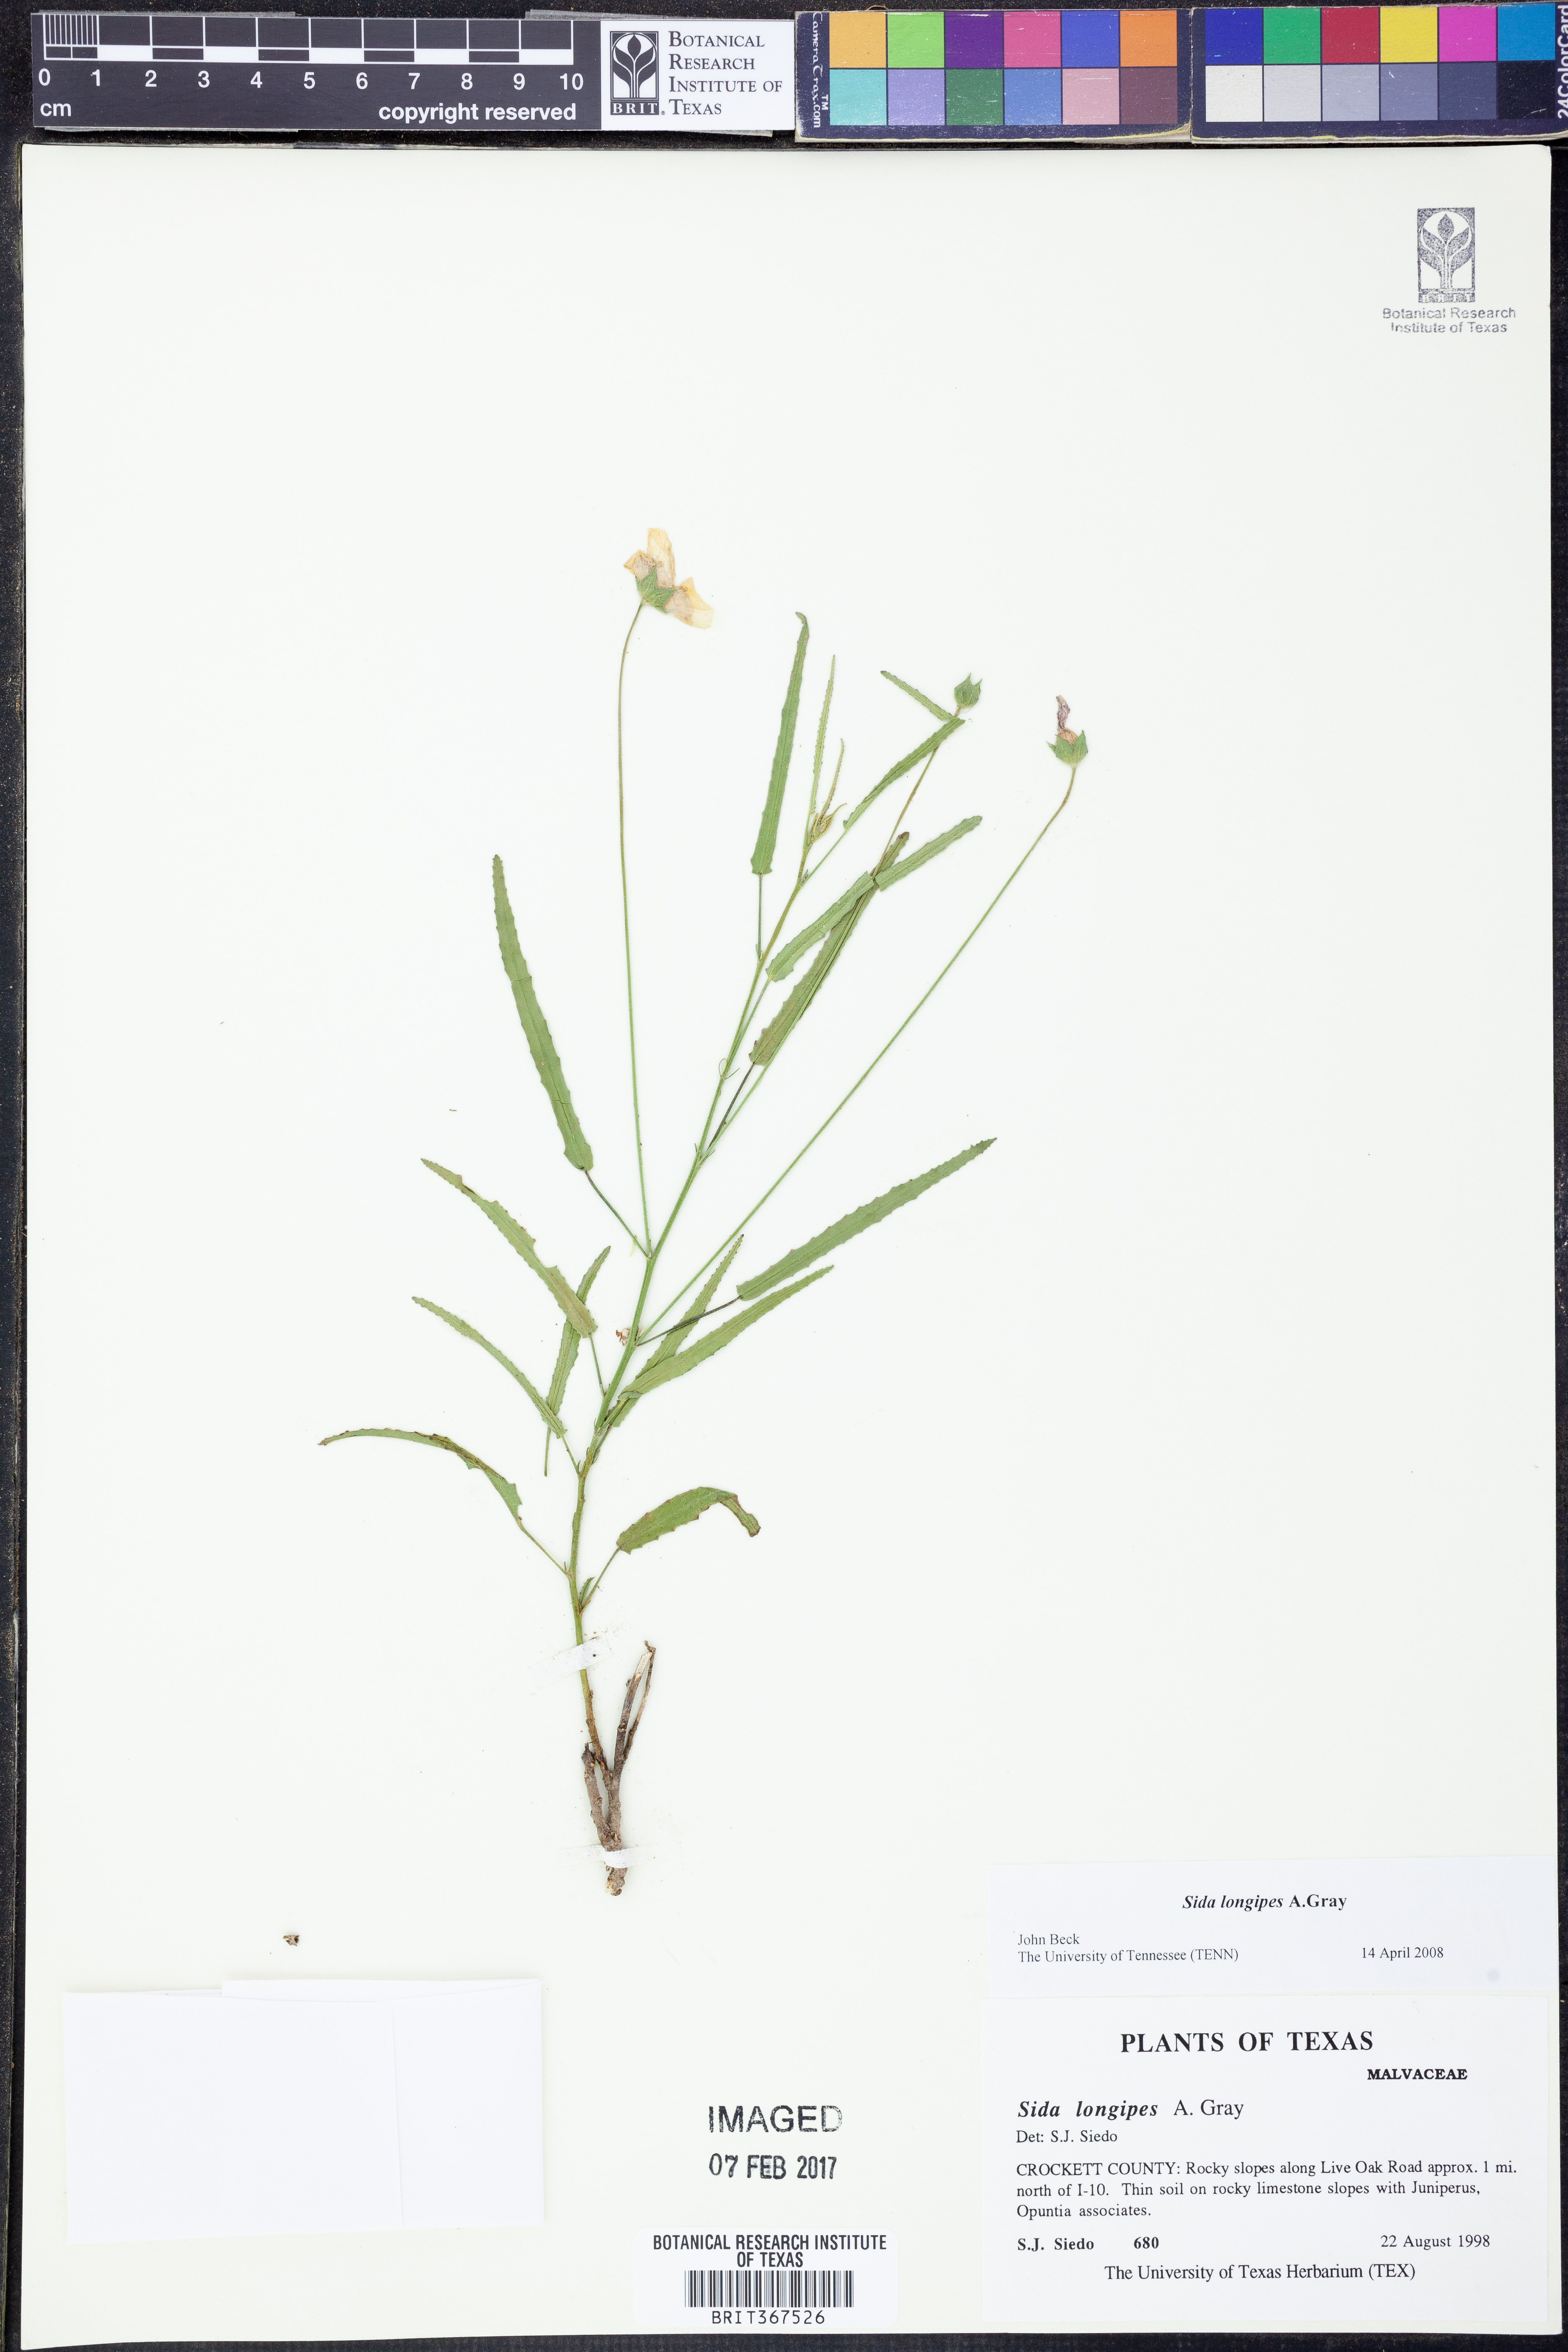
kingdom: Plantae
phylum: Tracheophyta
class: Magnoliopsida
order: Malvales
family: Malvaceae
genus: Sida
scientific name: Sida lancifolia
